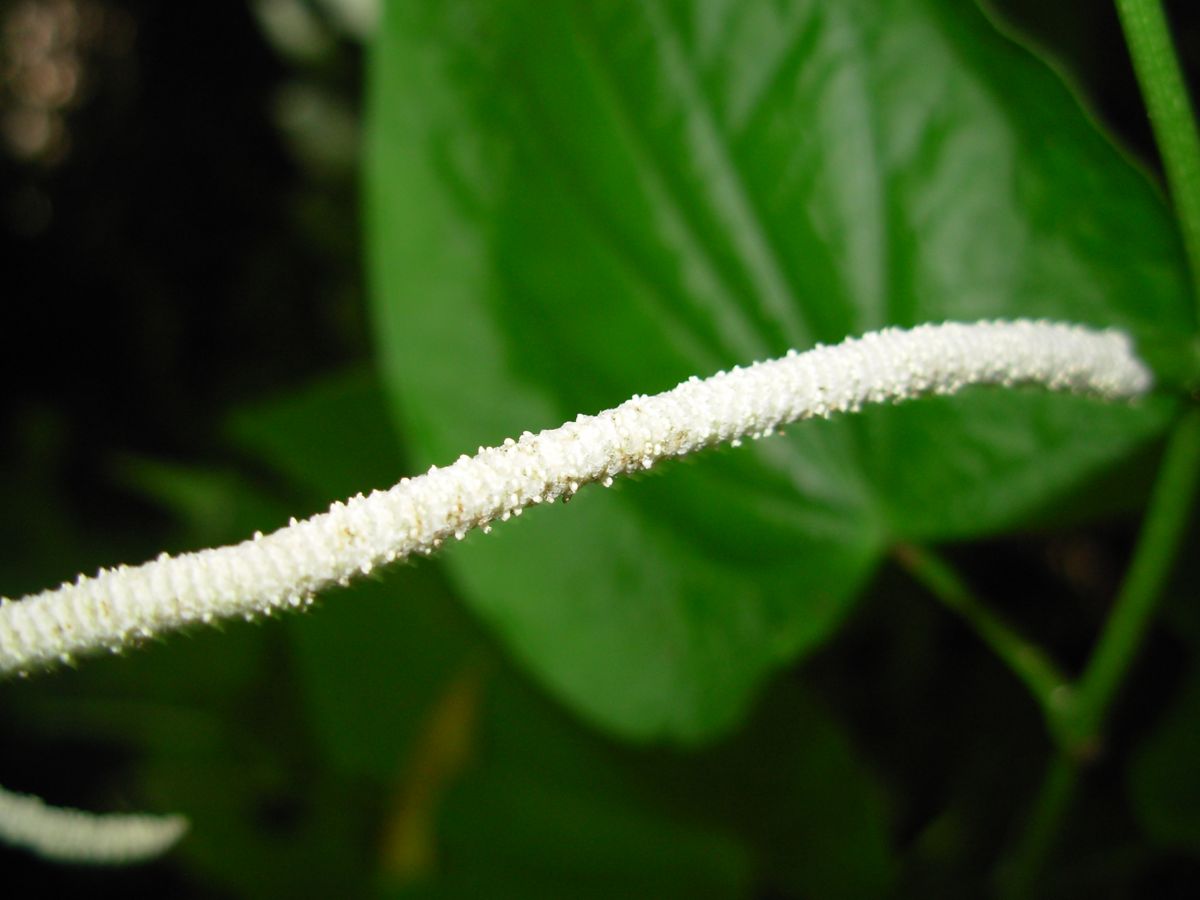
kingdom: Plantae
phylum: Tracheophyta
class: Magnoliopsida
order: Piperales
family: Piperaceae
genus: Piper
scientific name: Piper marginatum
